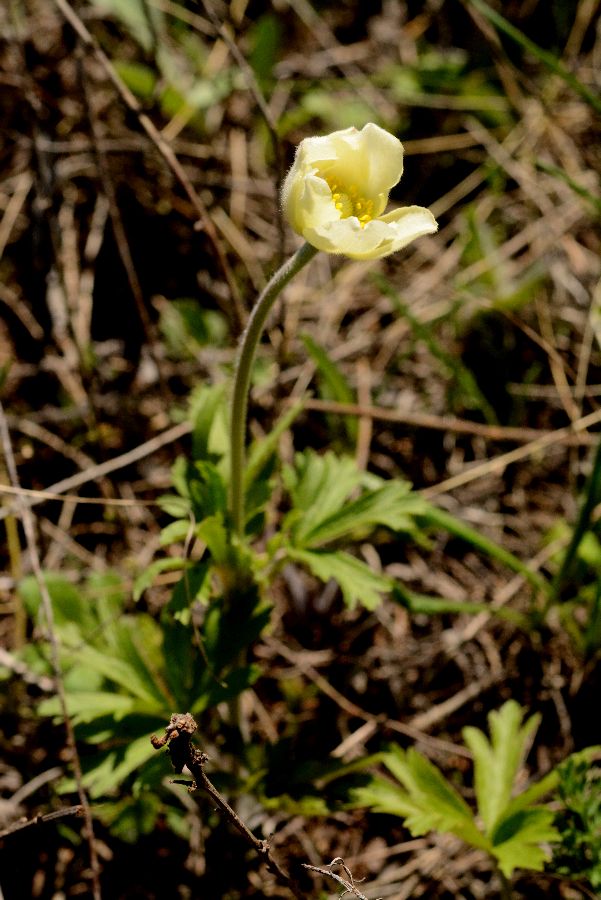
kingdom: Plantae
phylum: Tracheophyta
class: Magnoliopsida
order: Ranunculales
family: Ranunculaceae
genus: Anemone
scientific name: Anemone sylvestris
